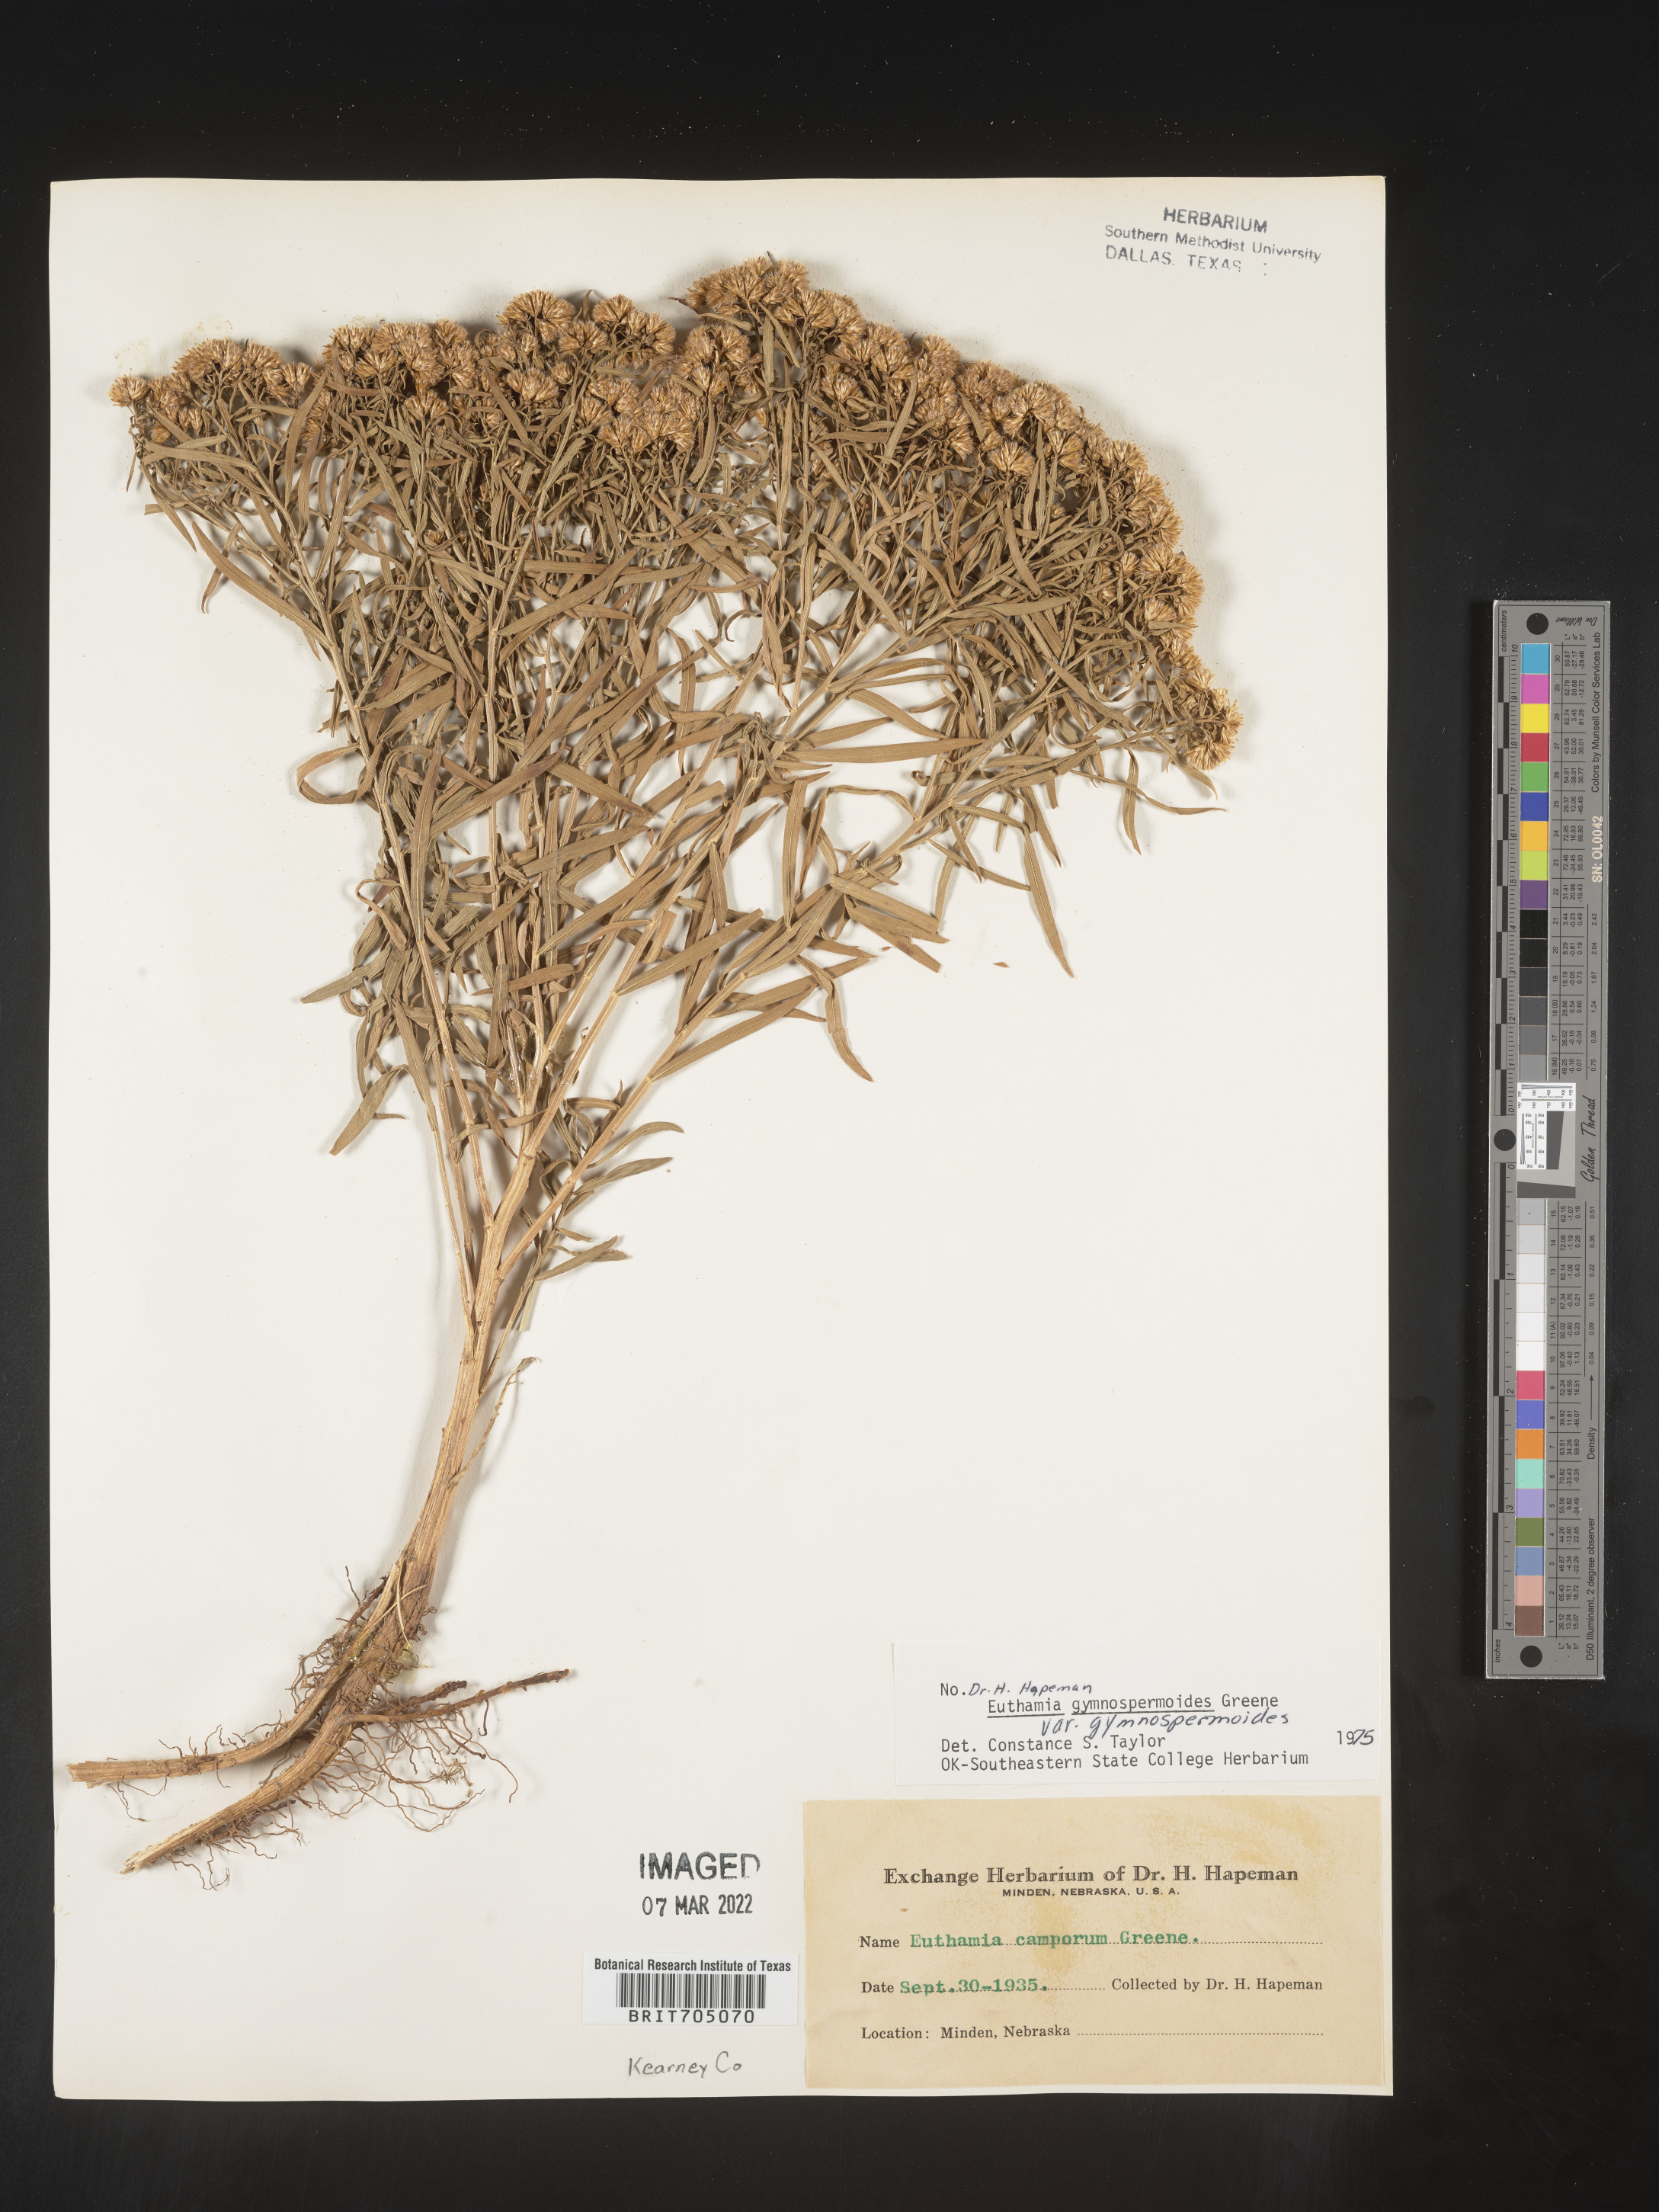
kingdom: Plantae
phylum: Tracheophyta
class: Magnoliopsida
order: Asterales
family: Asteraceae
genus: Euthamia
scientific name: Euthamia gymnospermoides
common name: Great plains goldentop
